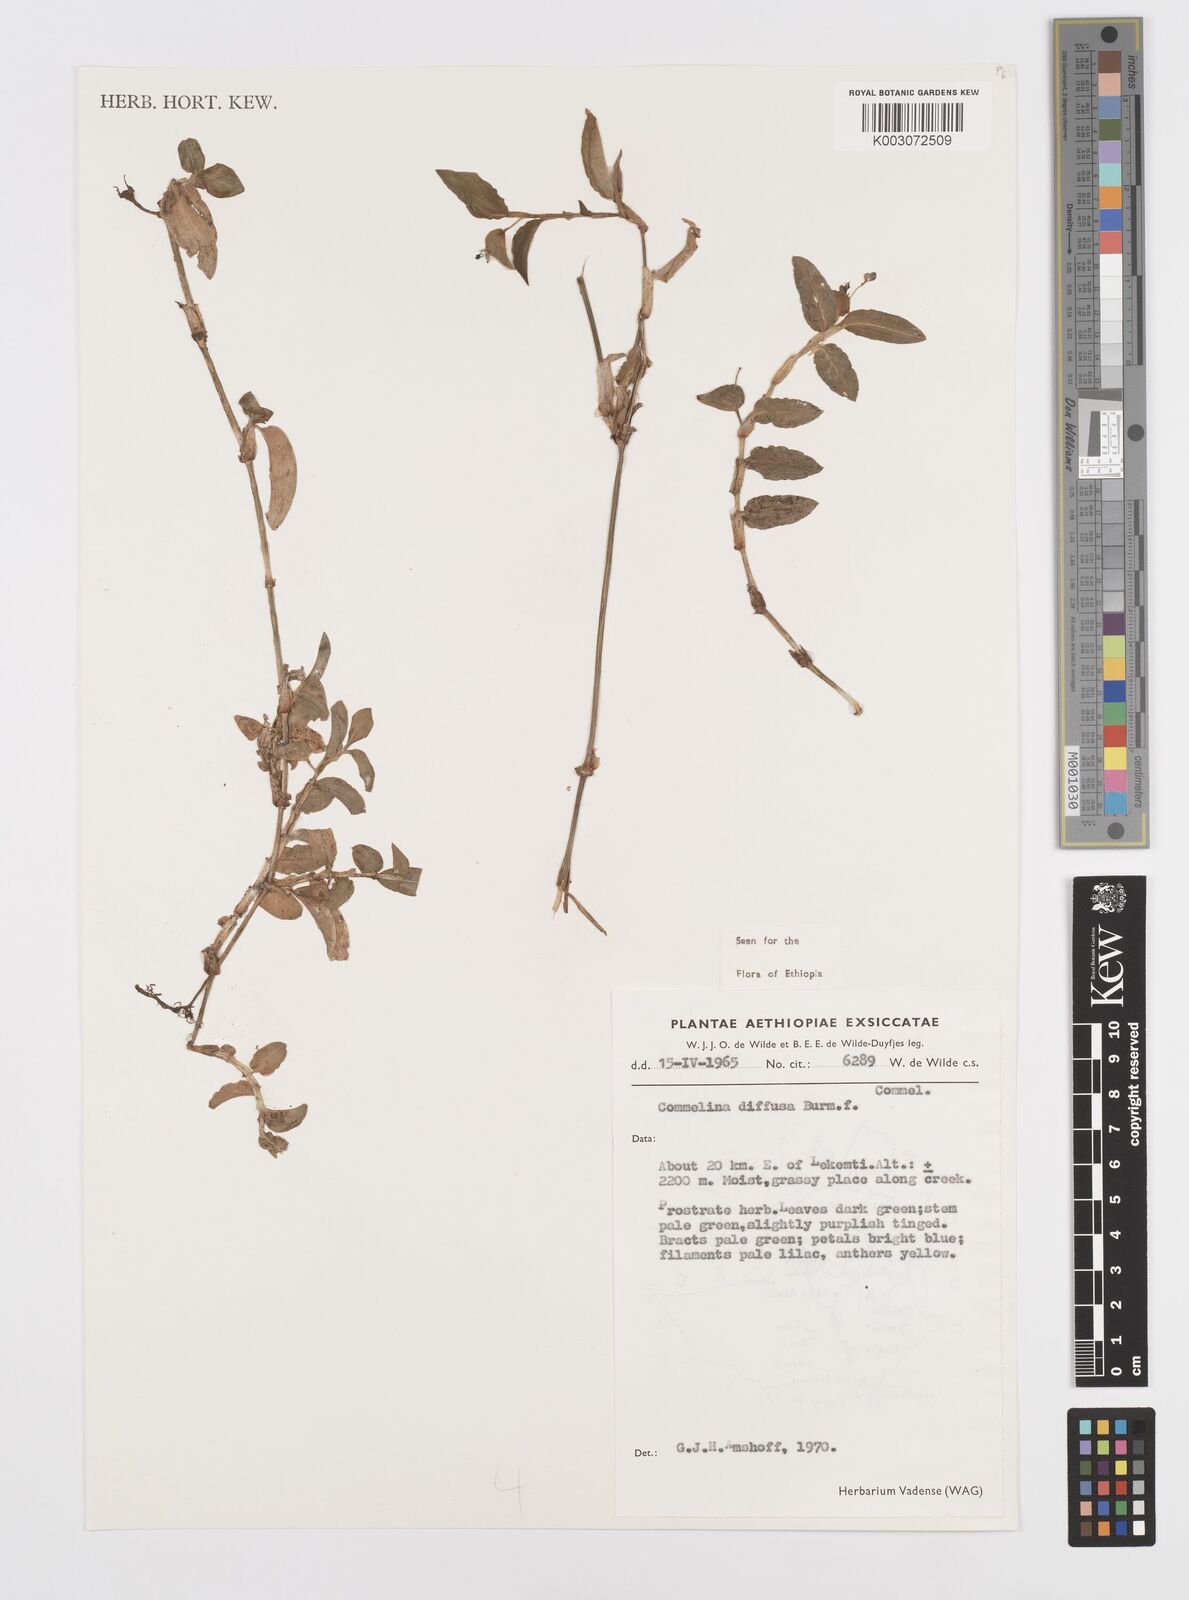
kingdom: Plantae
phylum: Tracheophyta
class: Liliopsida
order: Commelinales
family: Commelinaceae
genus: Commelina
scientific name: Commelina diffusa
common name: Climbing dayflower
